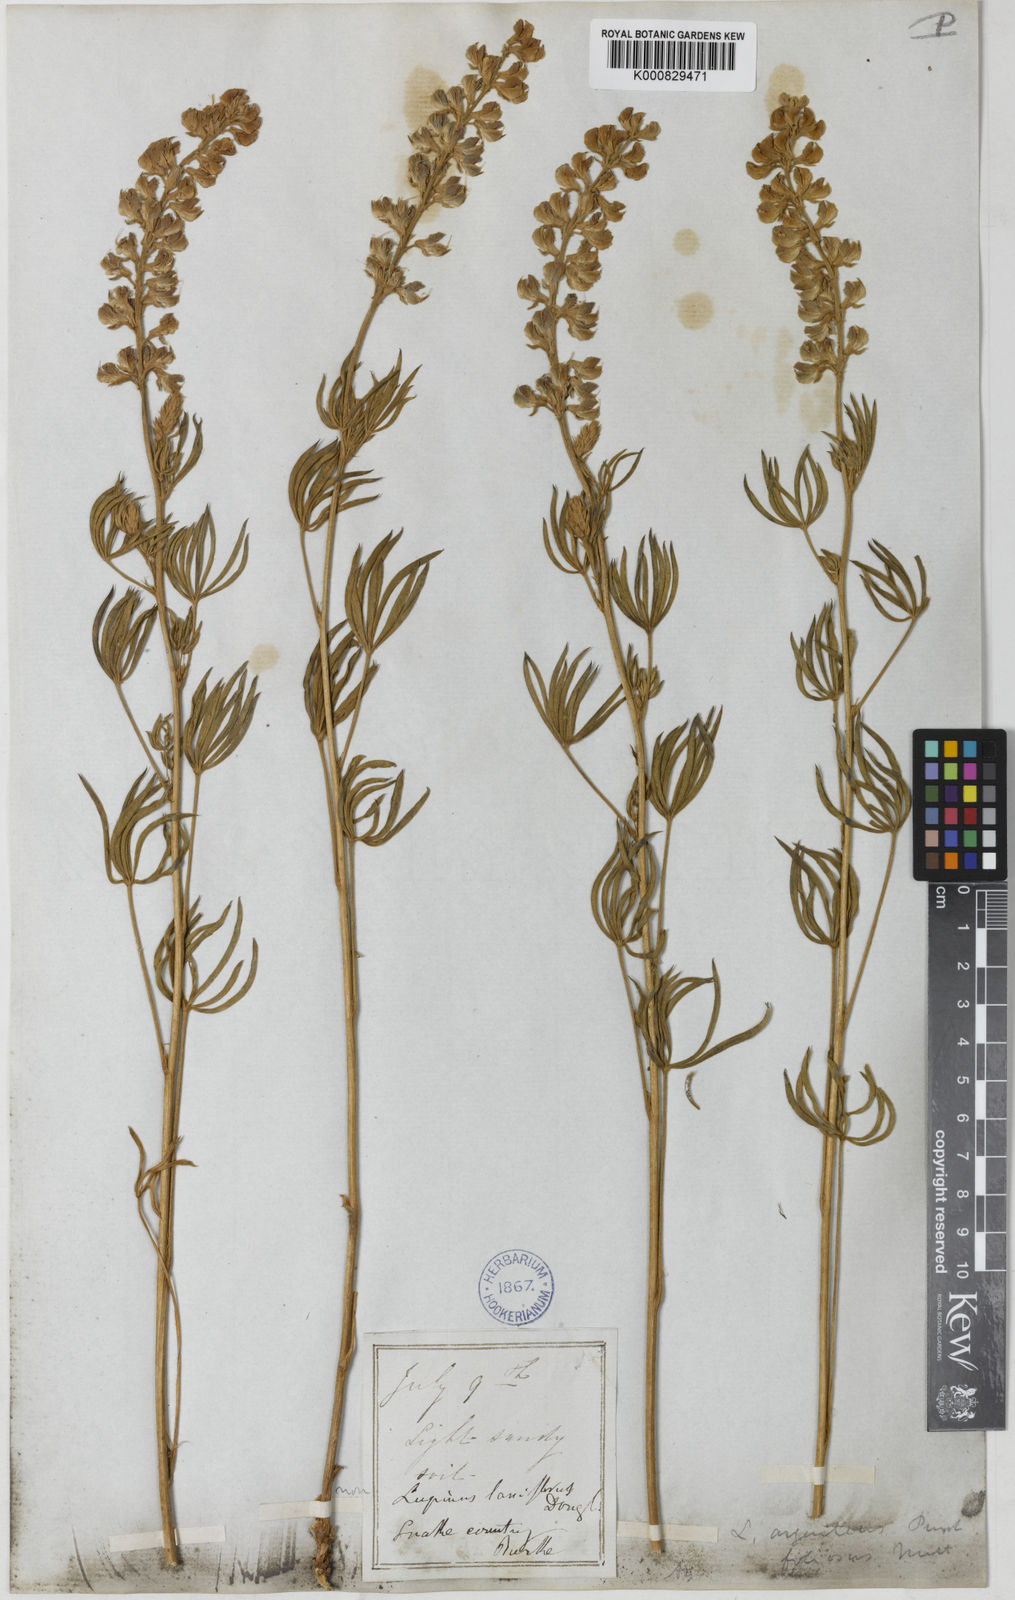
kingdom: Plantae
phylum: Tracheophyta
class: Magnoliopsida
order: Fabales
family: Fabaceae
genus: Lupinus
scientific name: Lupinus argenteus
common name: Silvery lupine
